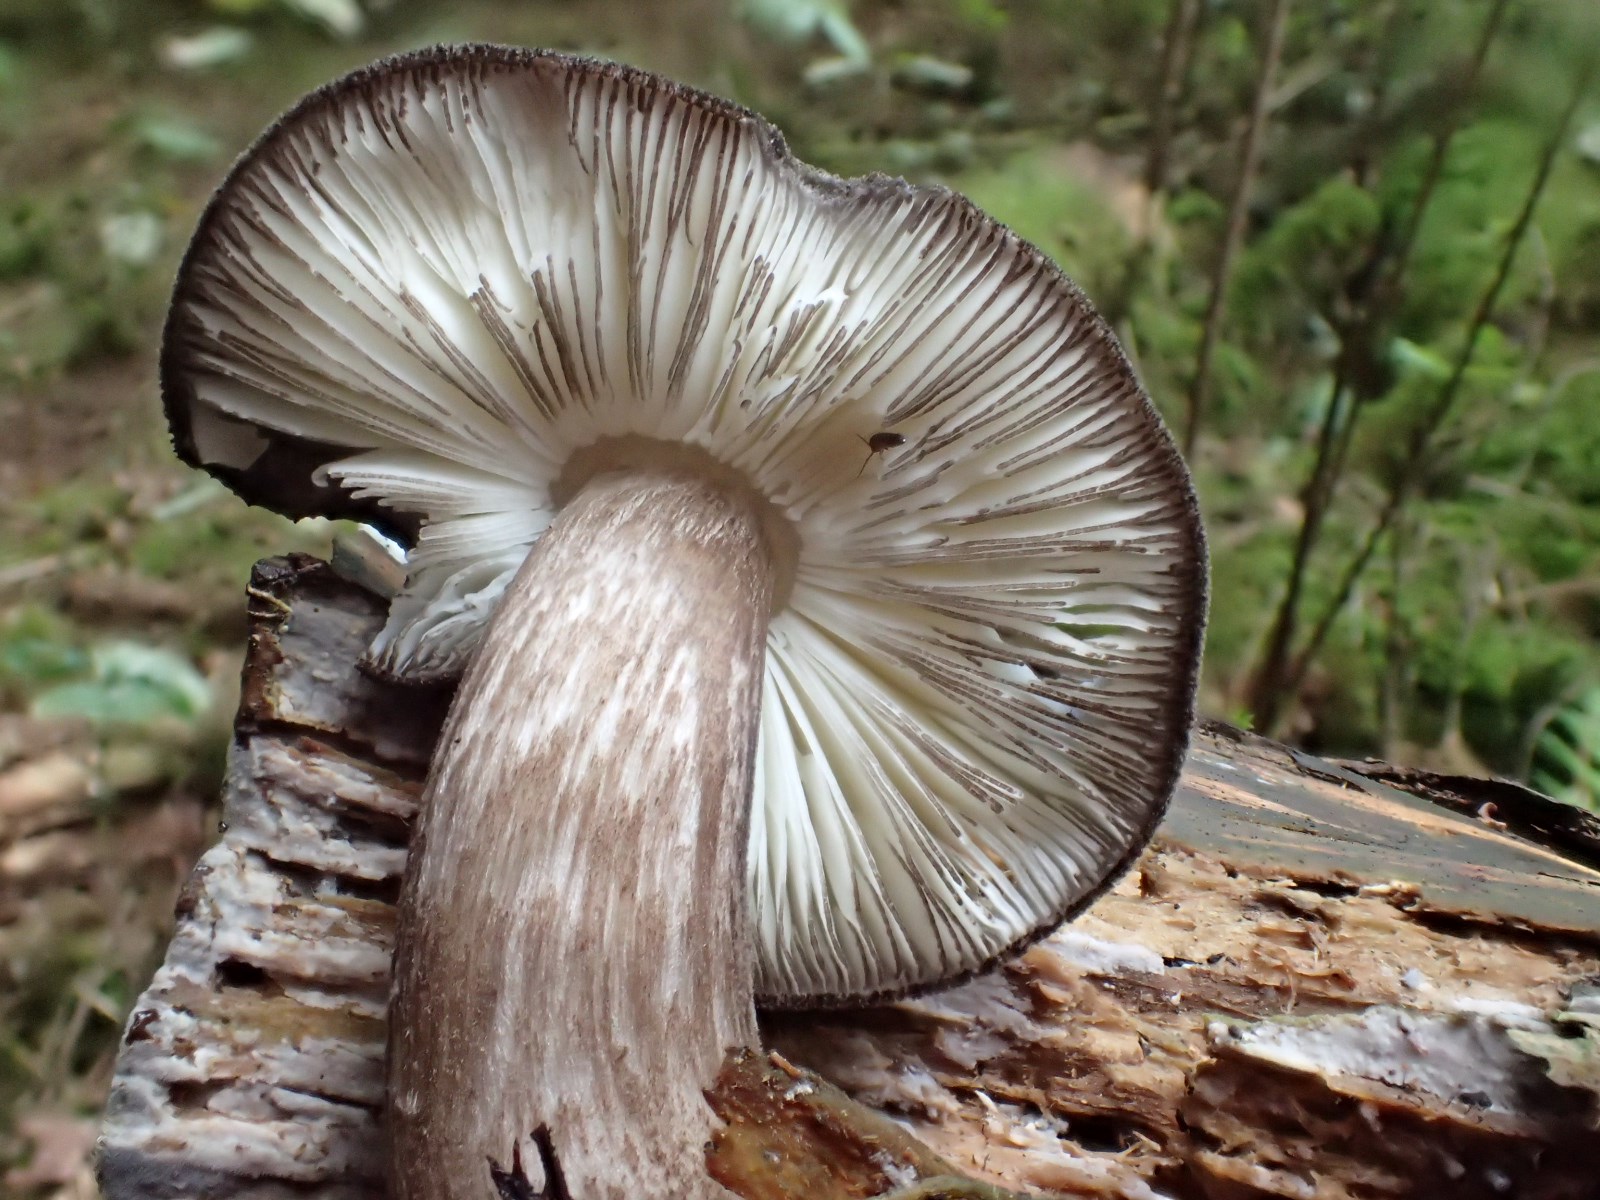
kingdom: Fungi
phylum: Basidiomycota
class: Agaricomycetes
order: Agaricales
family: Pluteaceae
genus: Pluteus
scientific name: Pluteus atromarginatus
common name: sortrandet skærmhat
